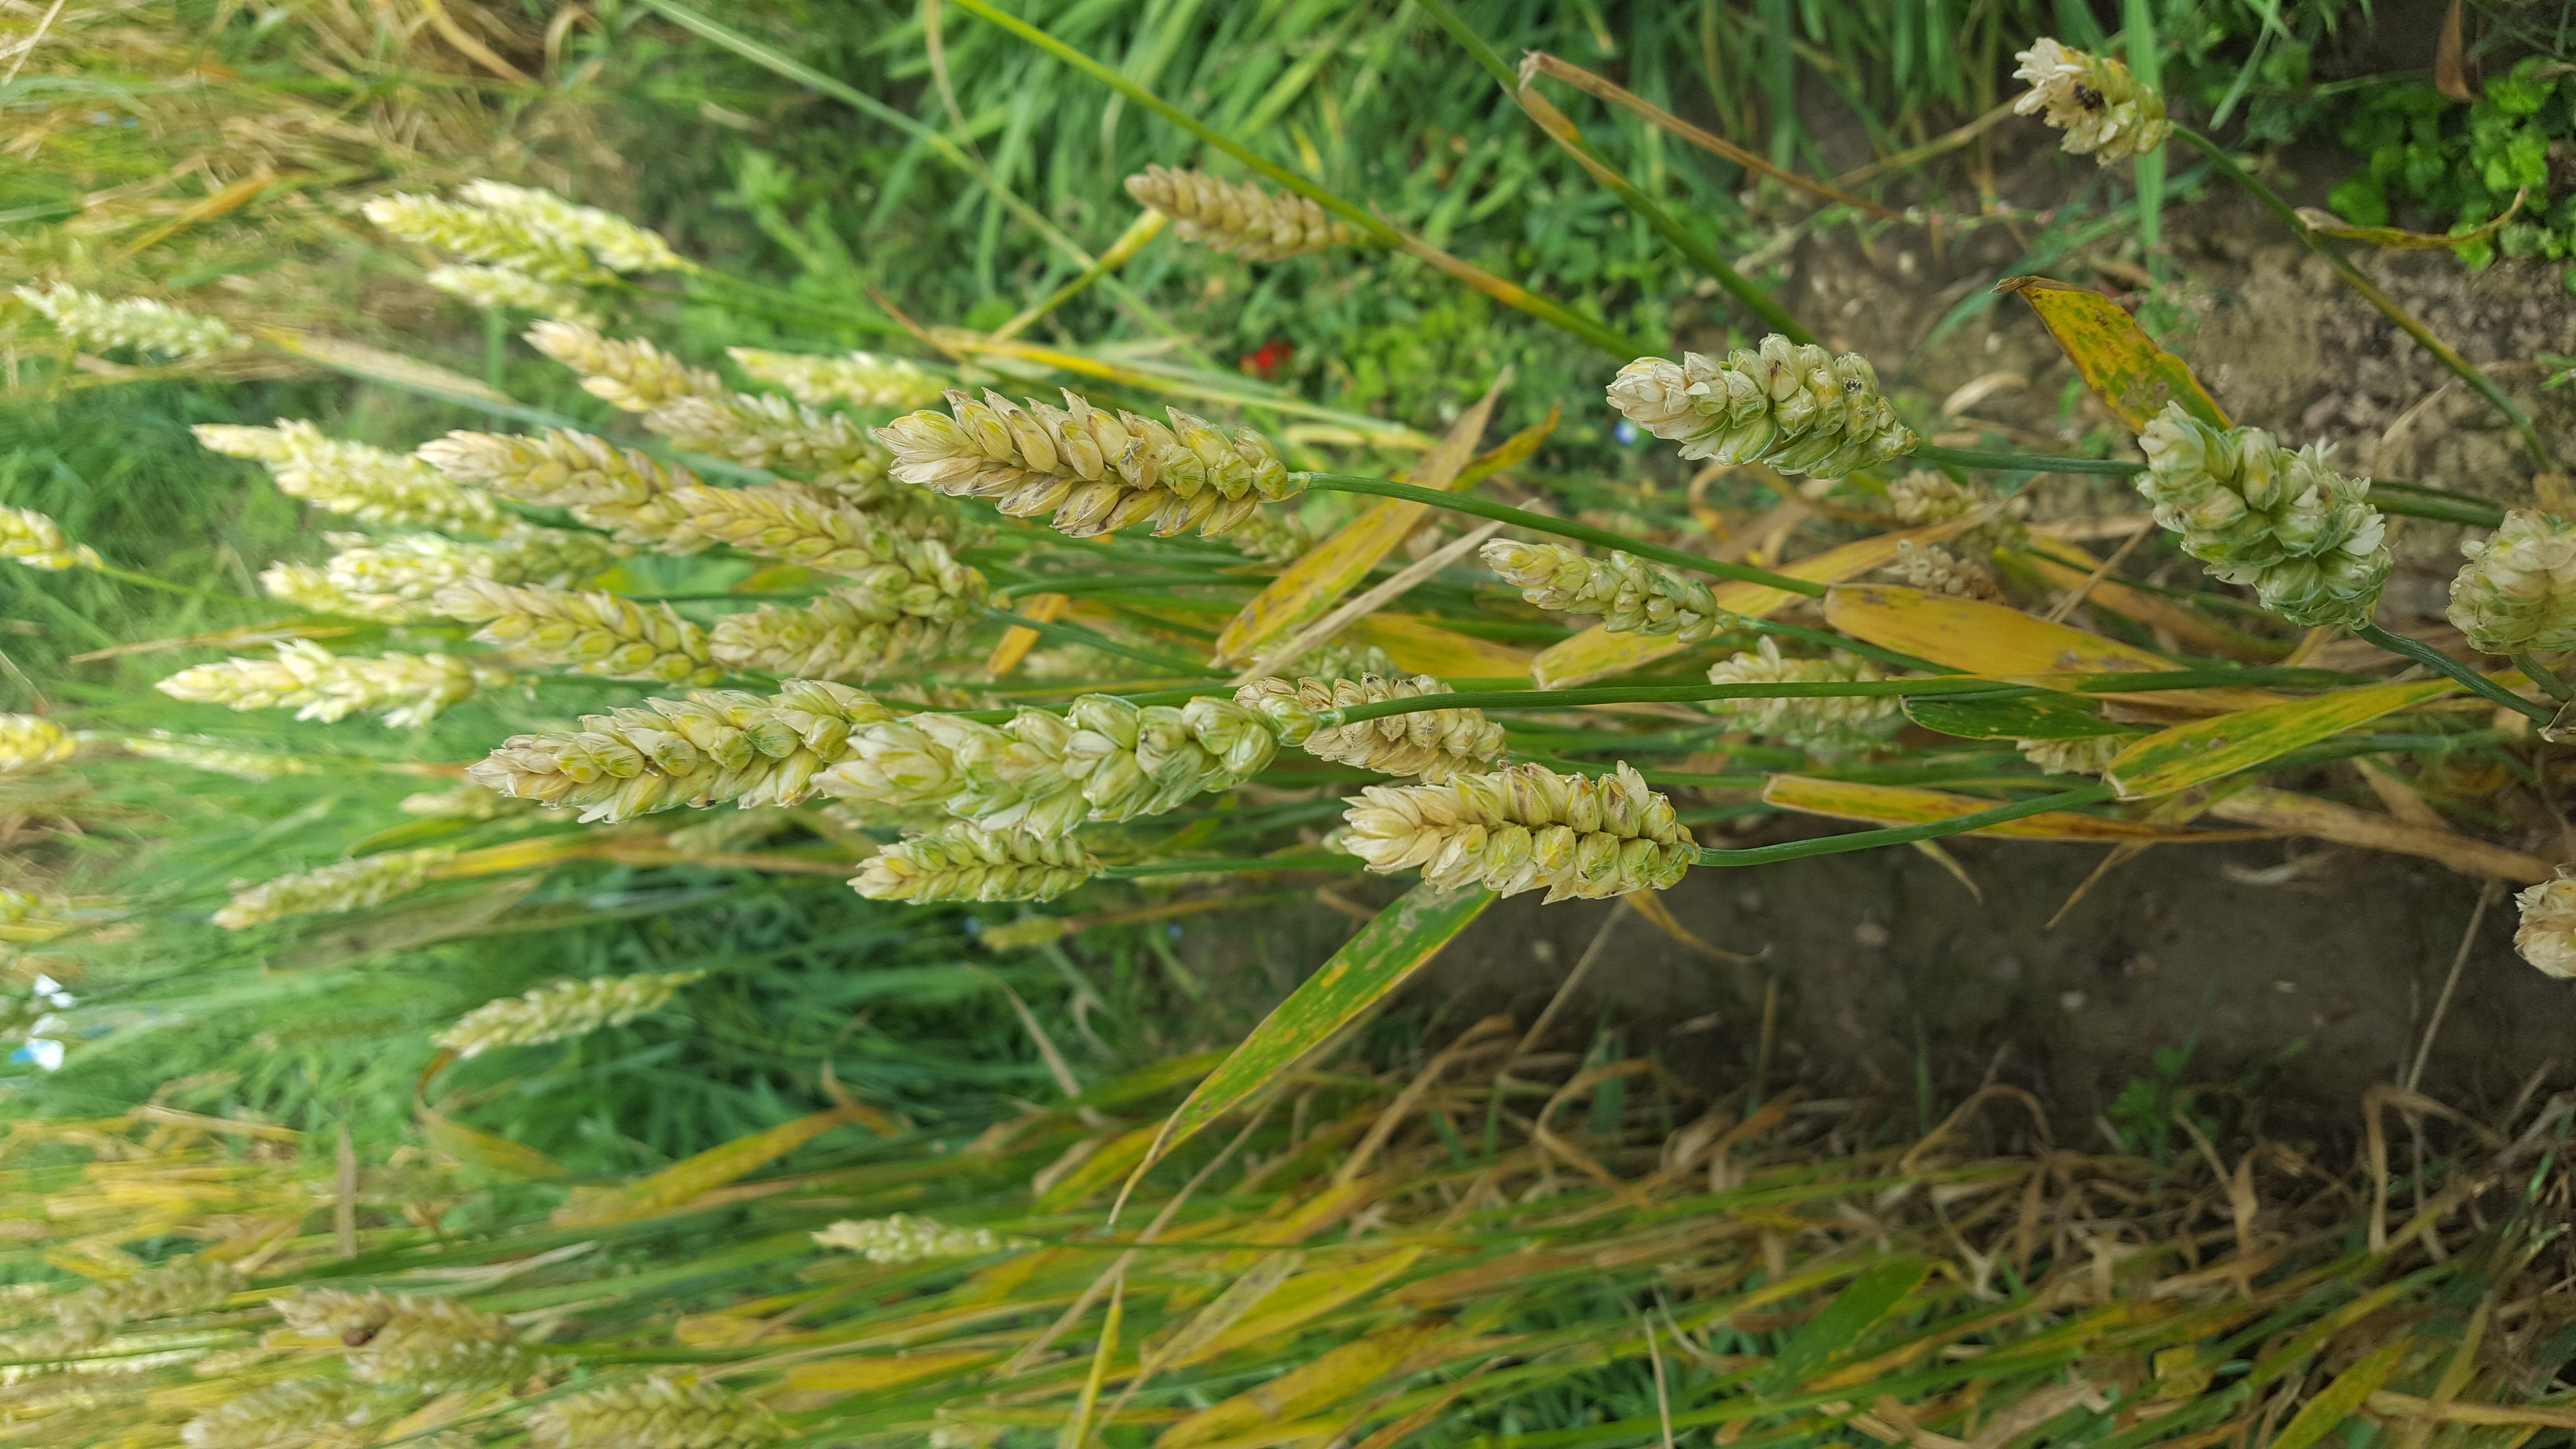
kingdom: Plantae
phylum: Tracheophyta
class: Liliopsida
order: Poales
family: Poaceae
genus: Triticum
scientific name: Triticum aestivum
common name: Common wheat
